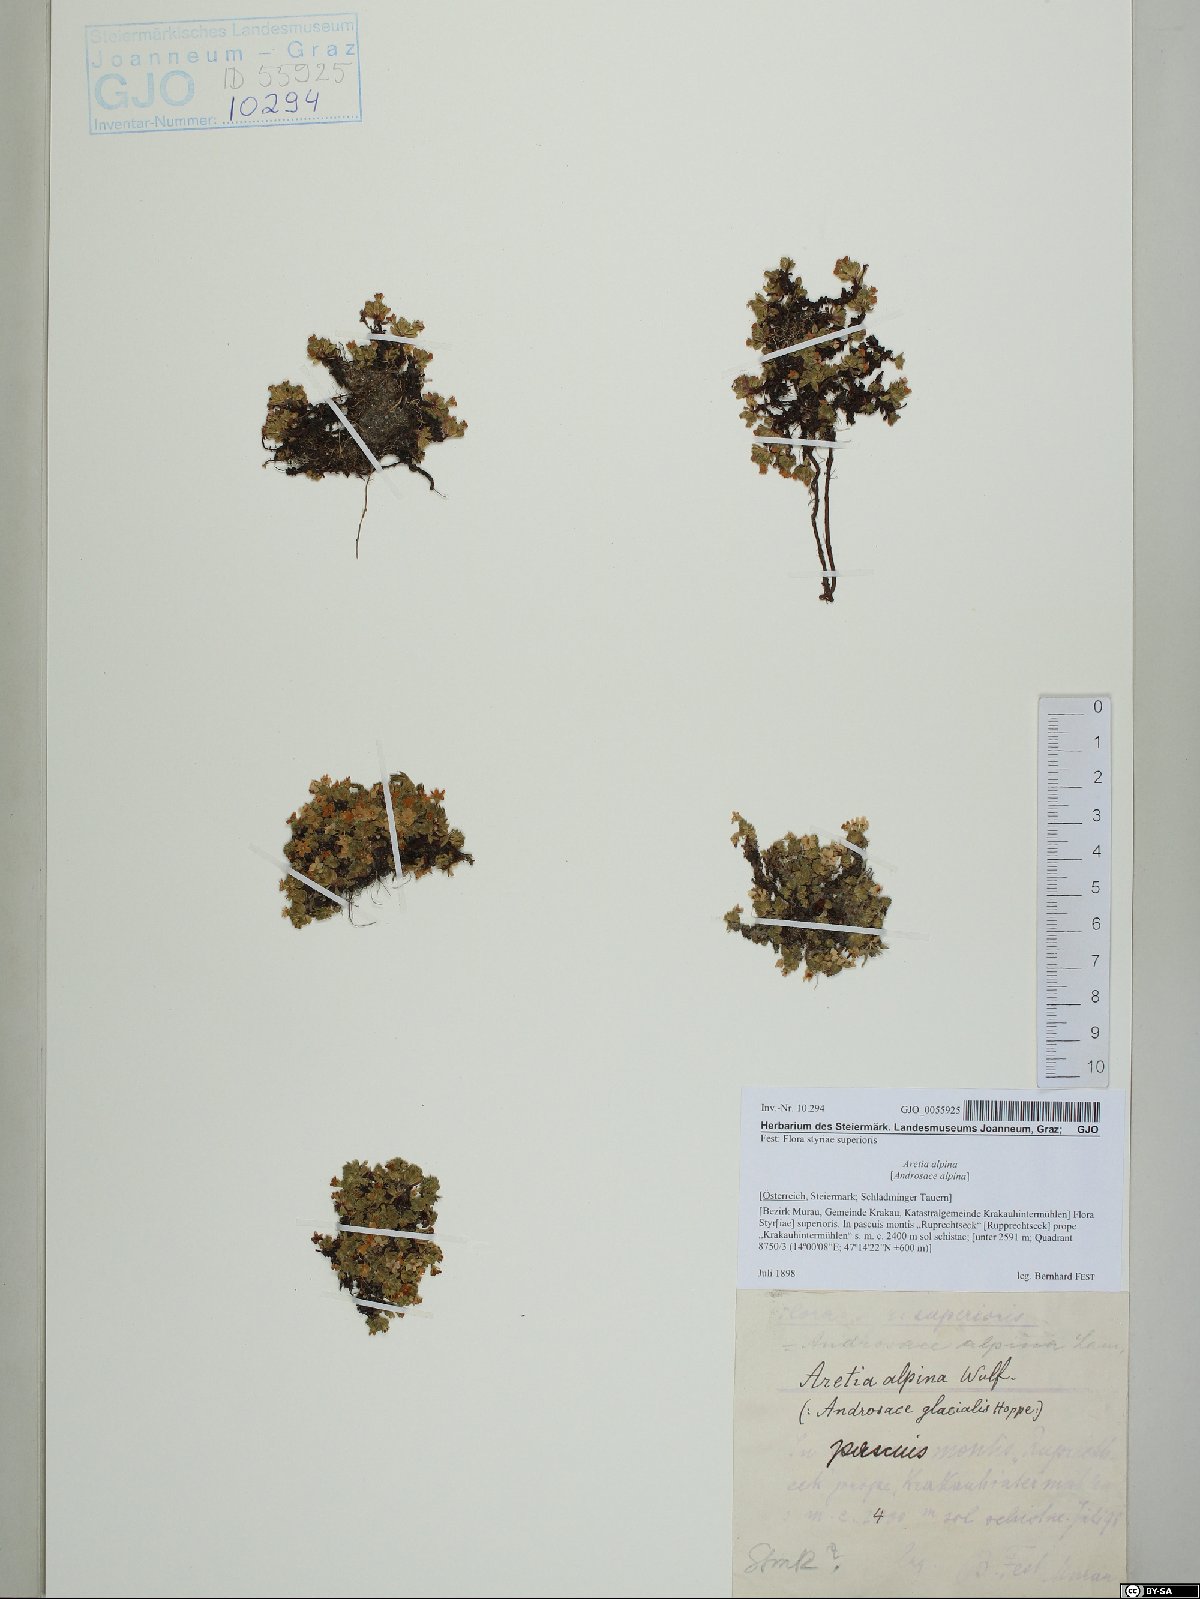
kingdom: Plantae
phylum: Tracheophyta
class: Magnoliopsida
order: Ericales
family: Primulaceae
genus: Androsace
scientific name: Androsace alpina
